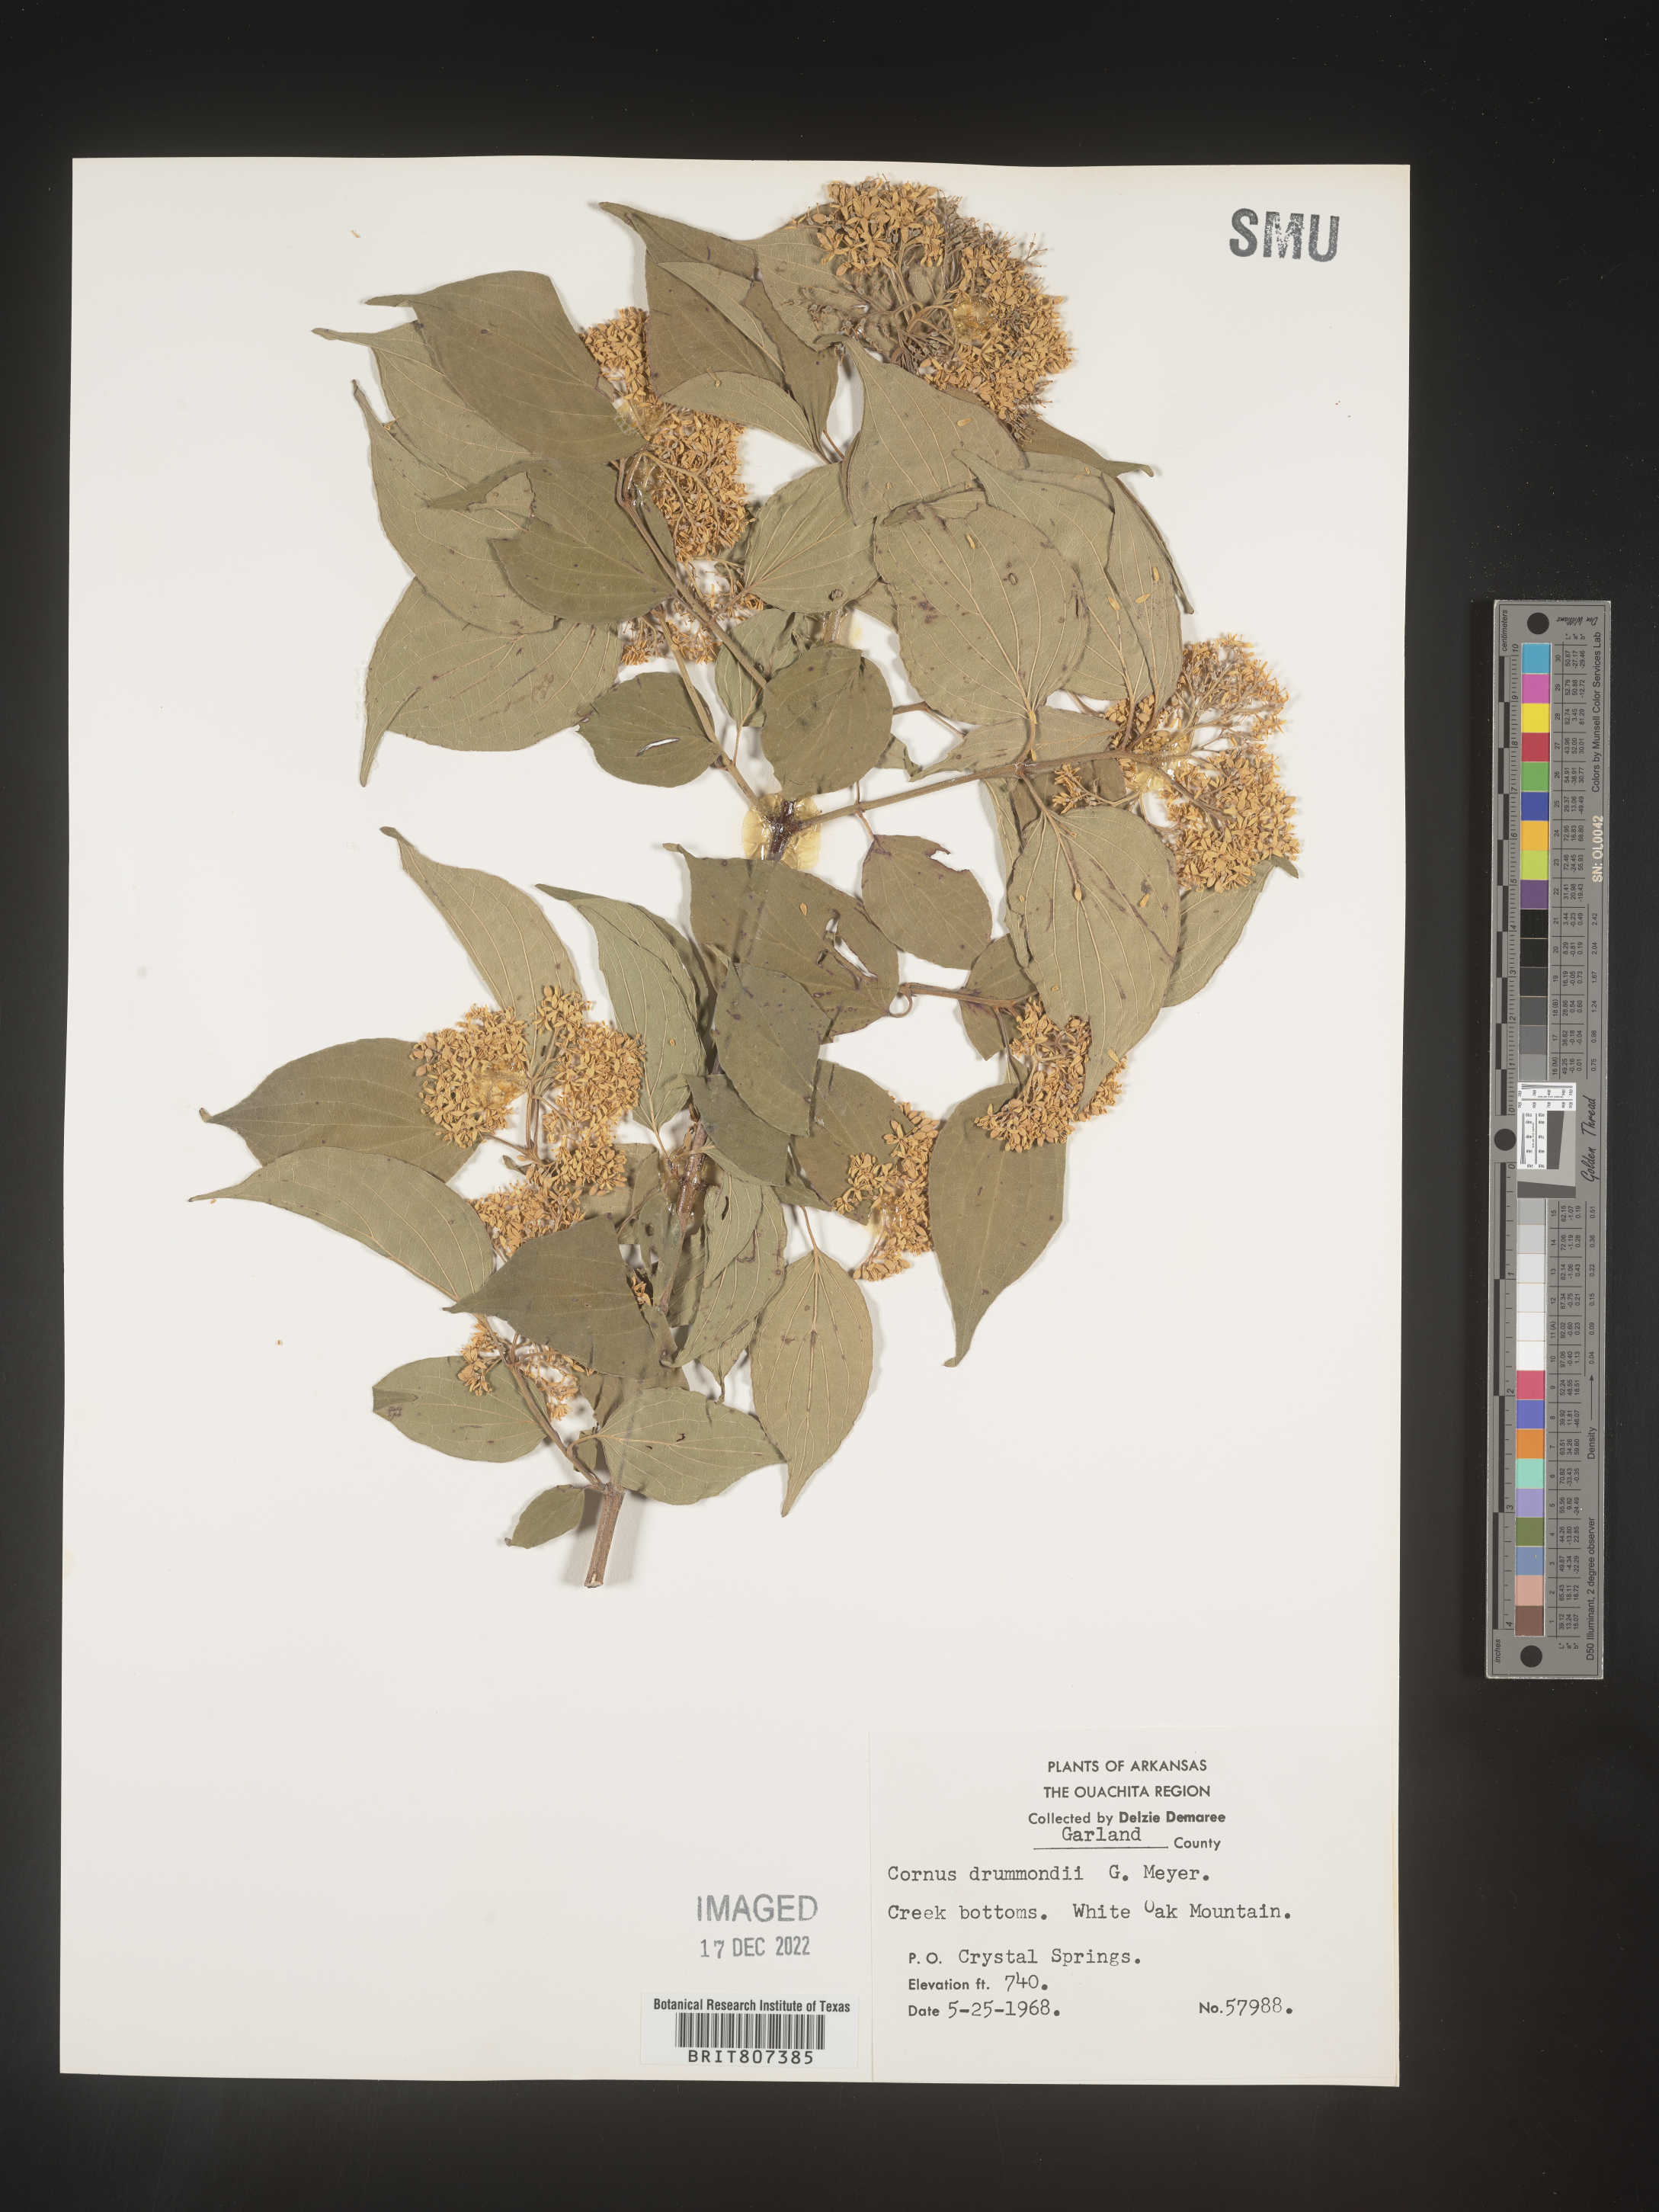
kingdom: Plantae
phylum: Tracheophyta
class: Magnoliopsida
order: Cornales
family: Cornaceae
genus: Cornus
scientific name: Cornus drummondii
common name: Rough-leaf dogwood
